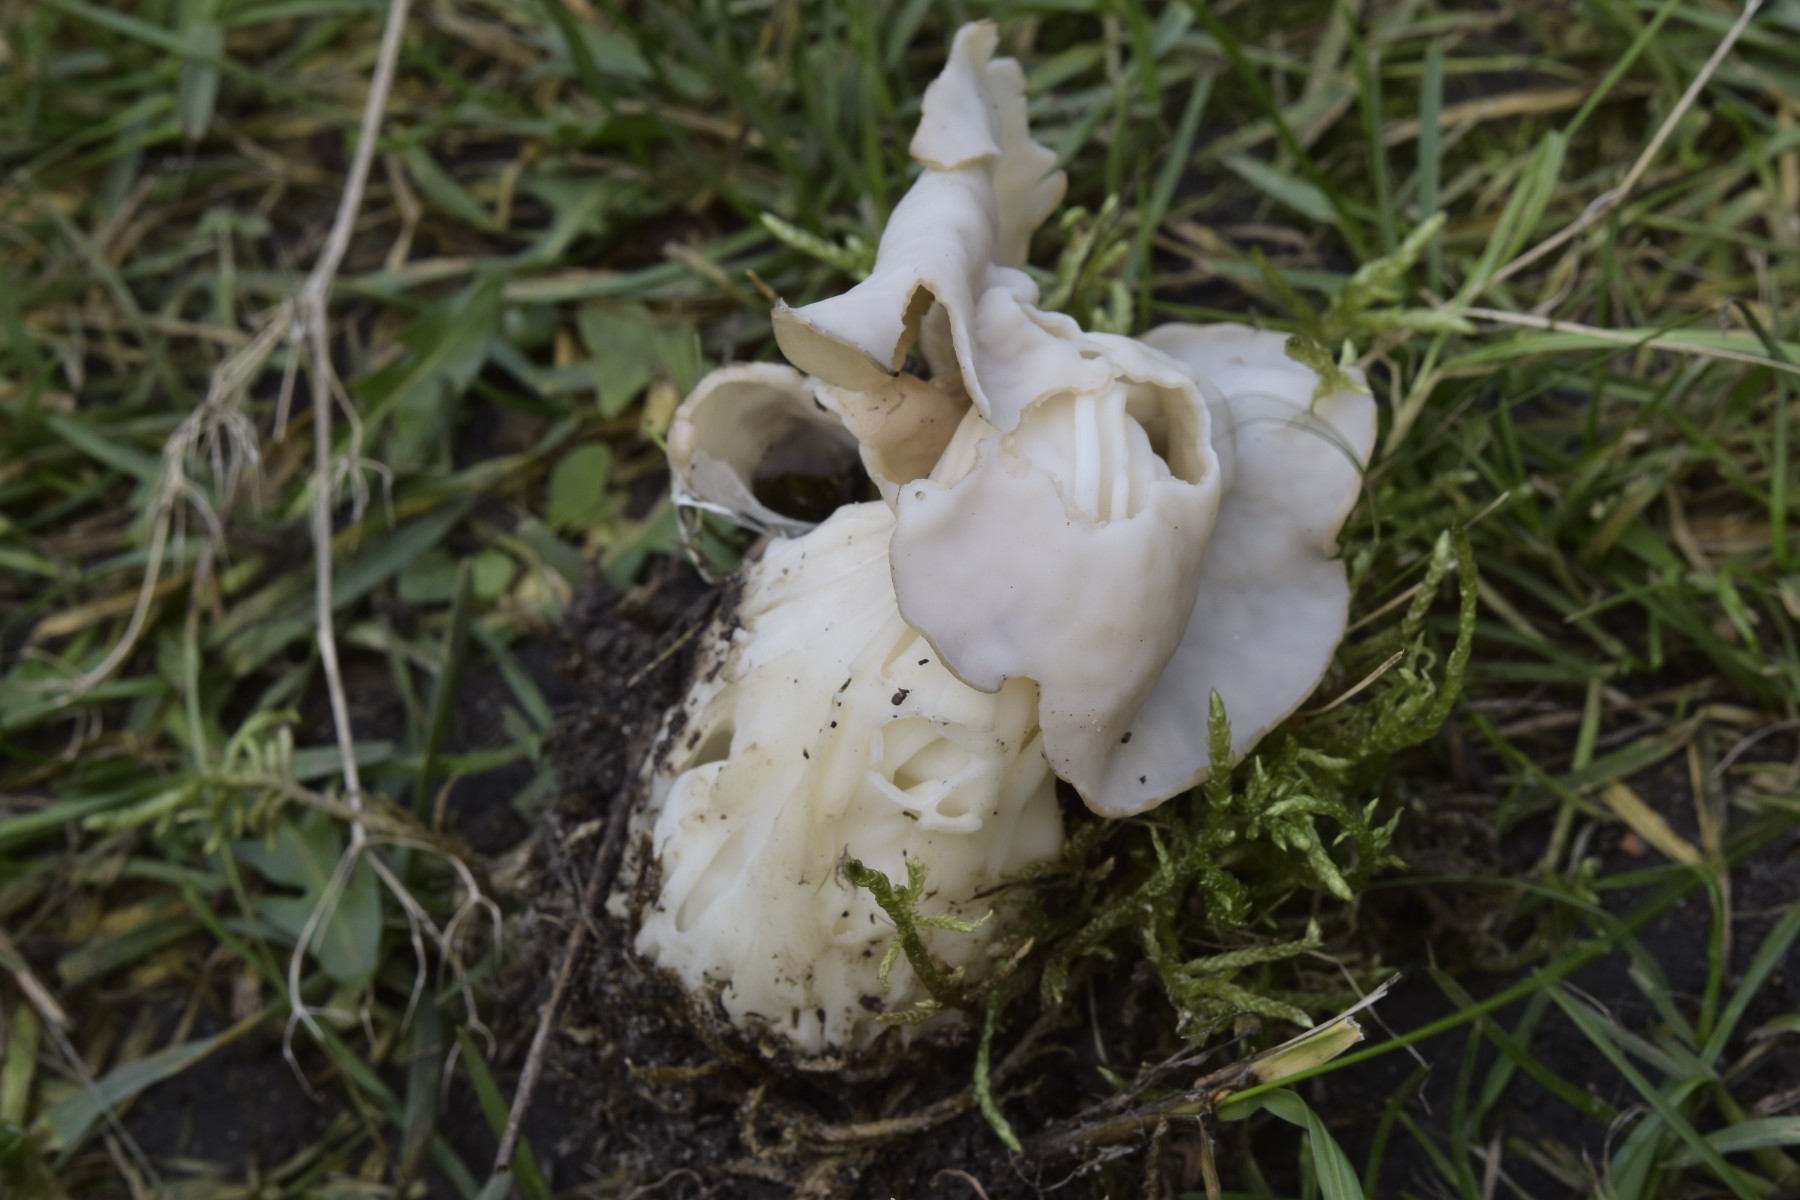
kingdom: Fungi
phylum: Ascomycota
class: Pezizomycetes
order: Pezizales
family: Helvellaceae
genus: Helvella
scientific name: Helvella crispa
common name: kruset foldhat
